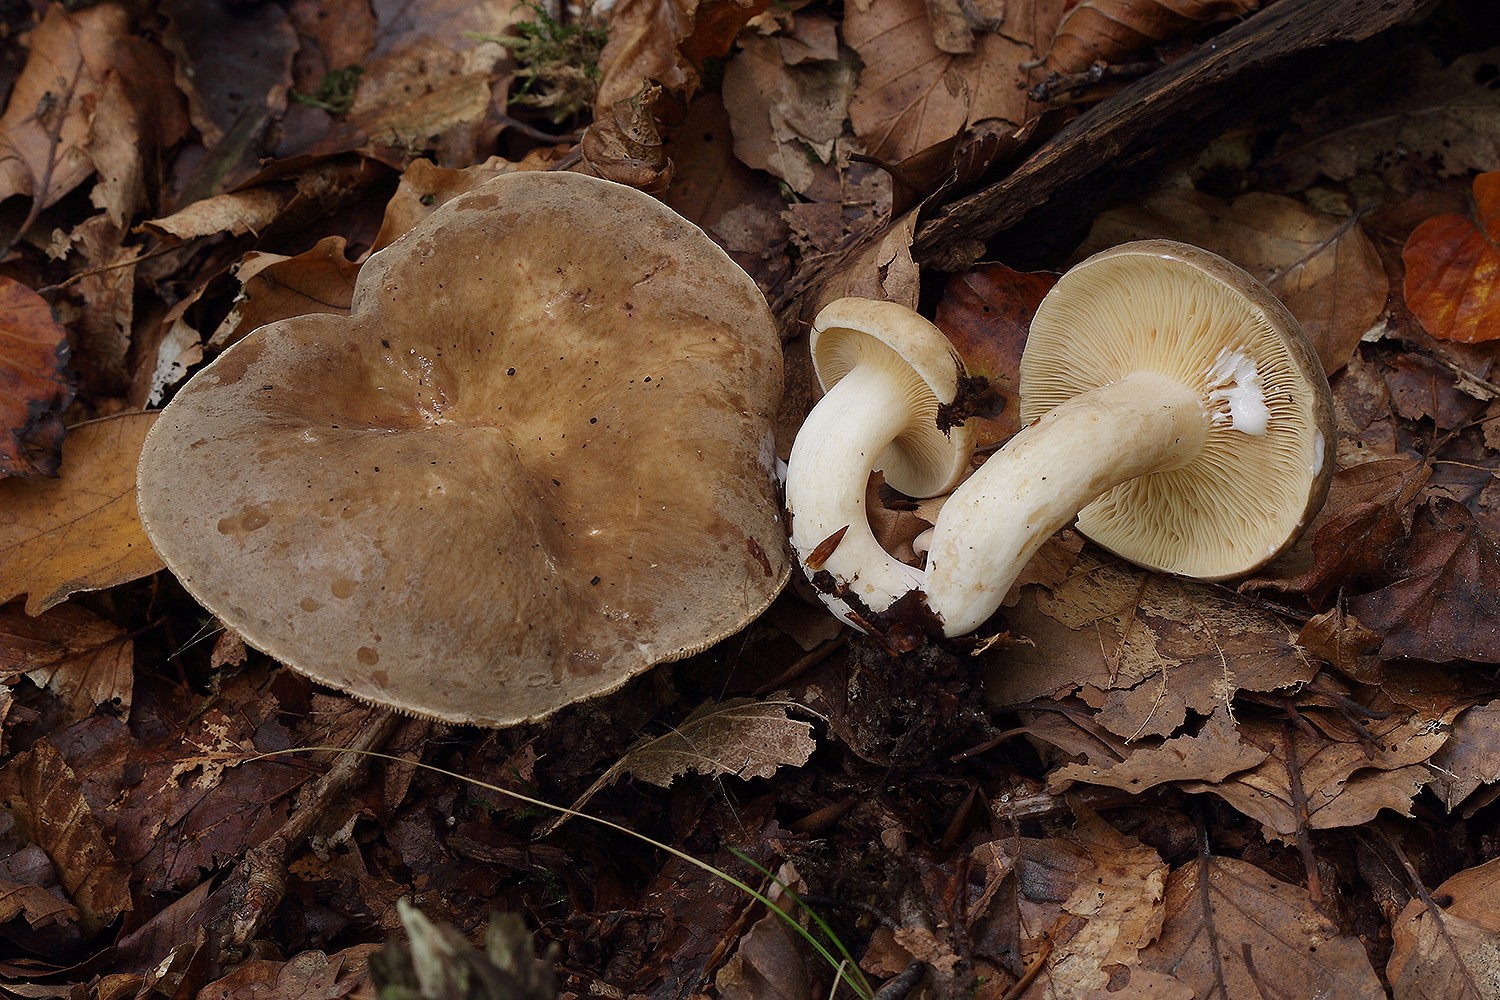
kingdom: Fungi
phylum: Basidiomycota
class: Agaricomycetes
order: Russulales
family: Russulaceae
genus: Lactarius
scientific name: Lactarius pterosporus
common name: vingesporet mælkehat
